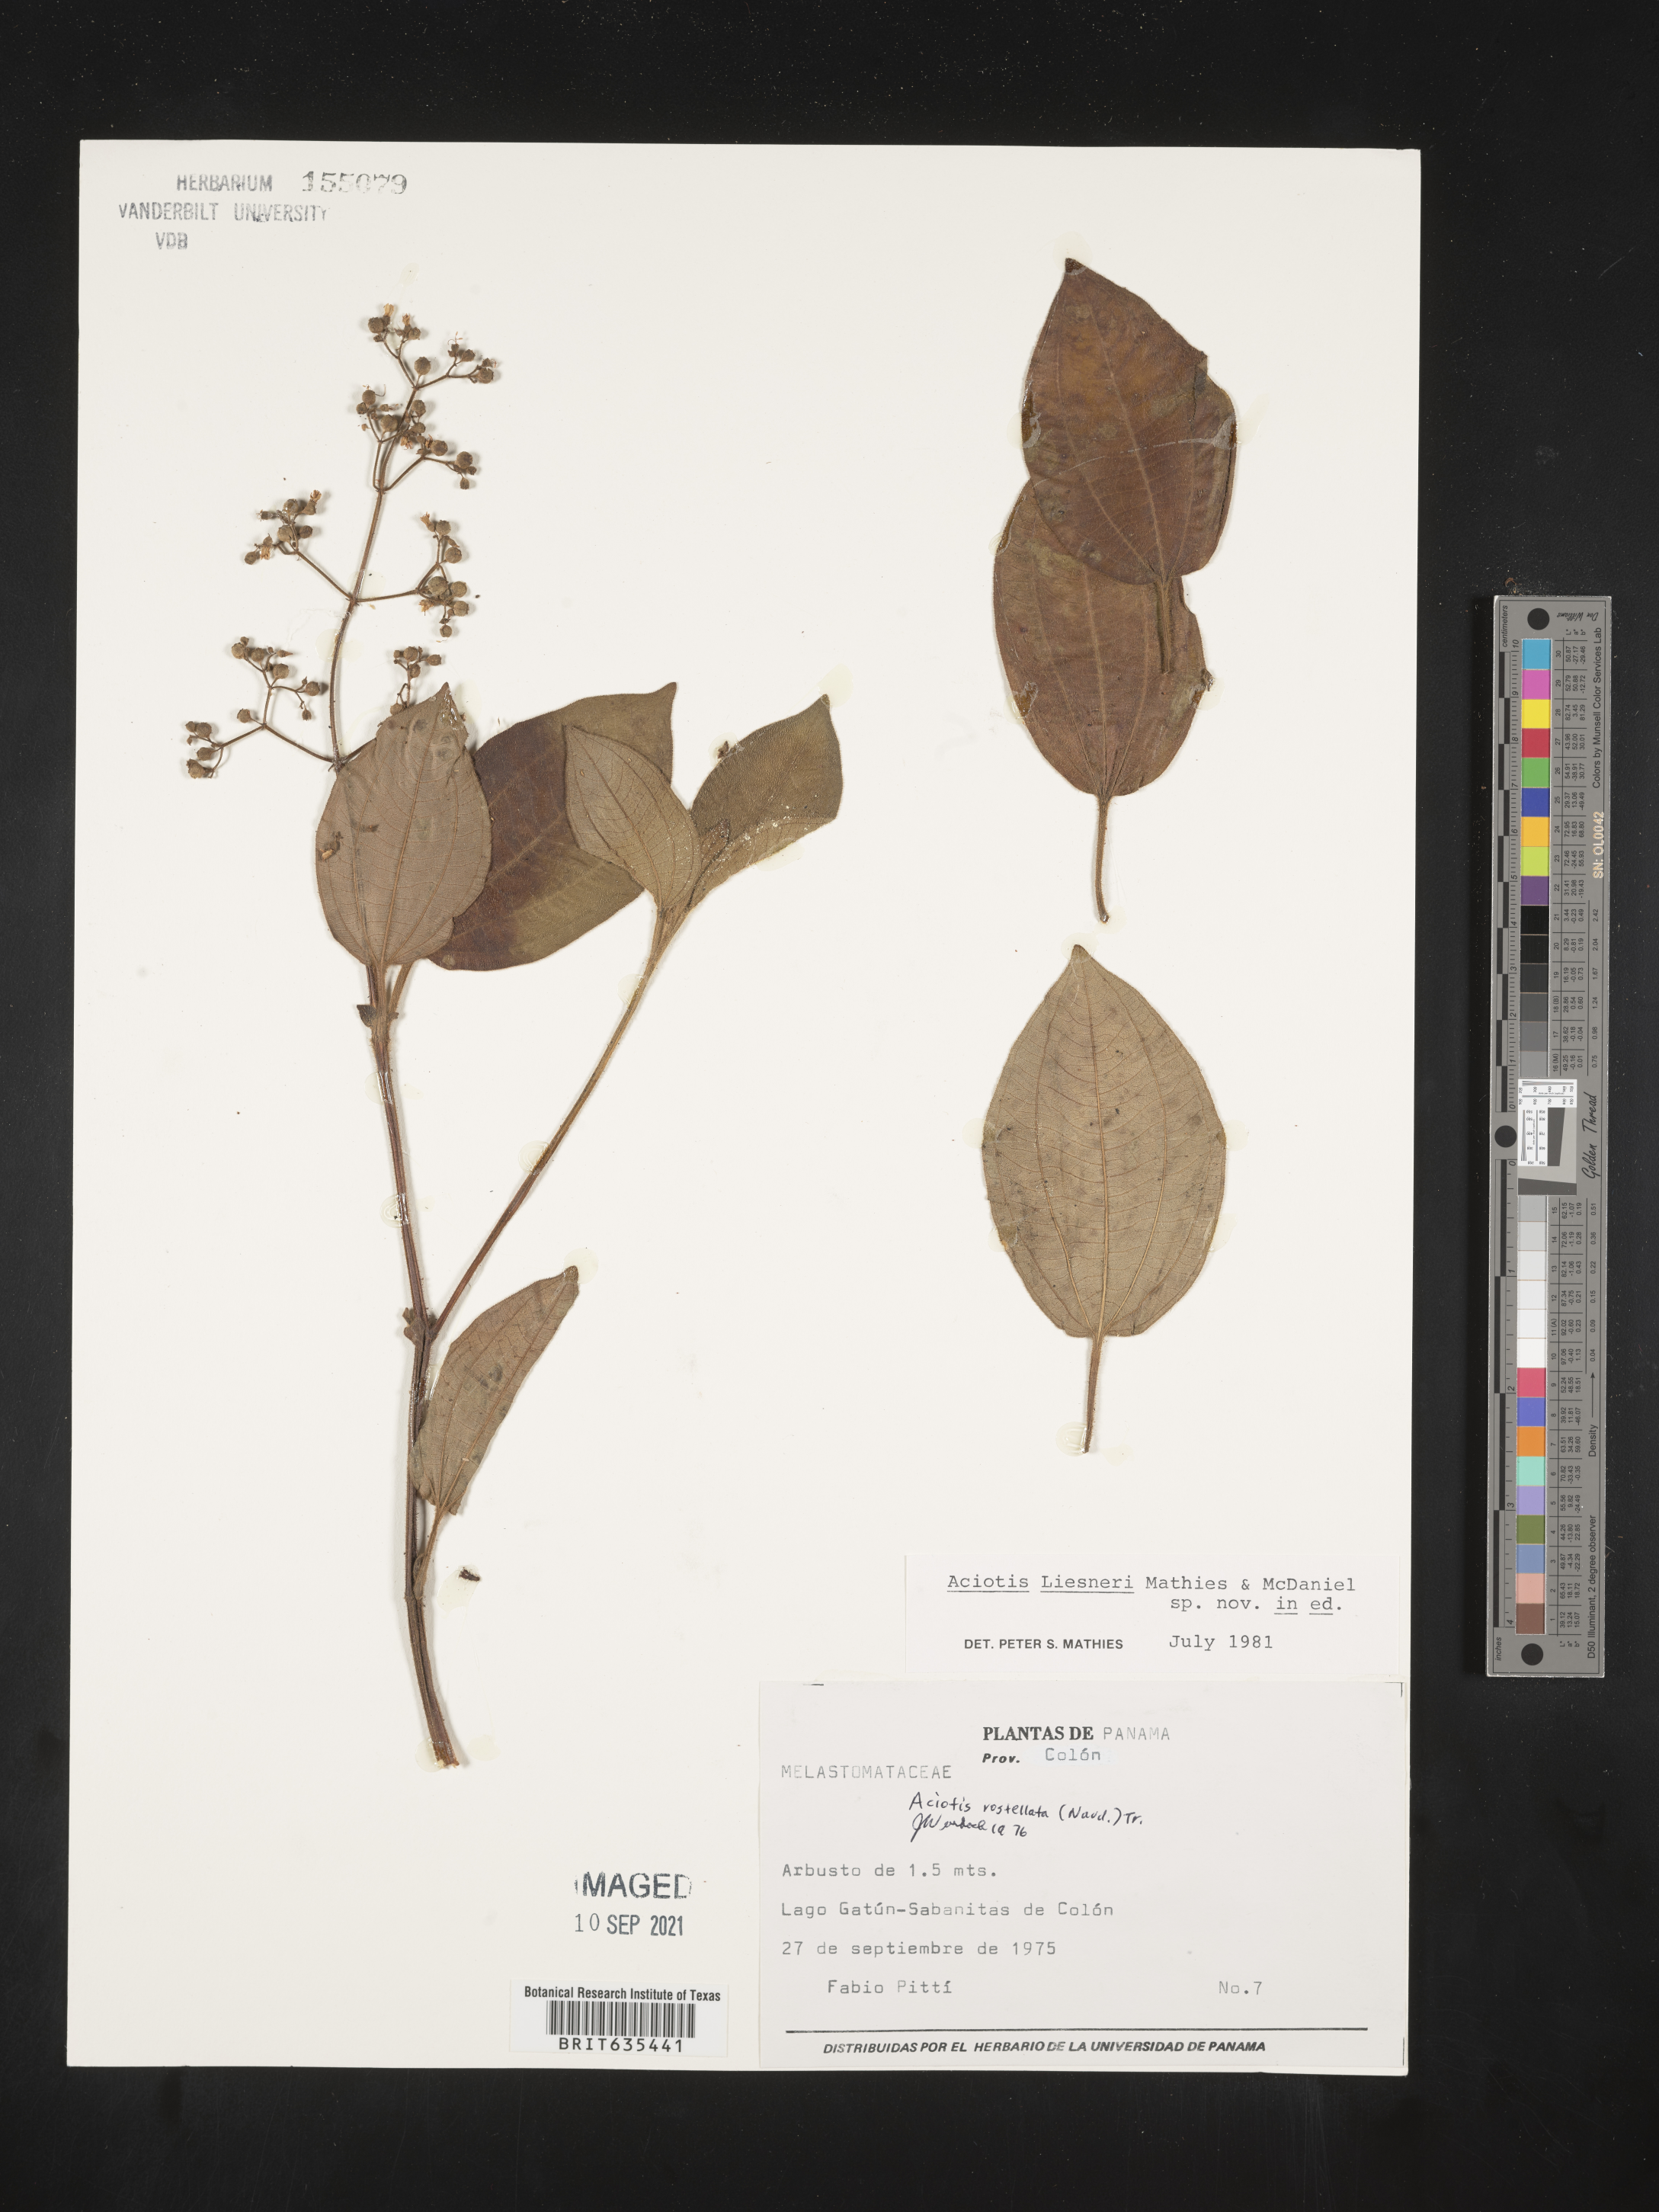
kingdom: Plantae
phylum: Tracheophyta
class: Magnoliopsida
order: Myrtales
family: Melastomataceae
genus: Aciotis
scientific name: Aciotis
